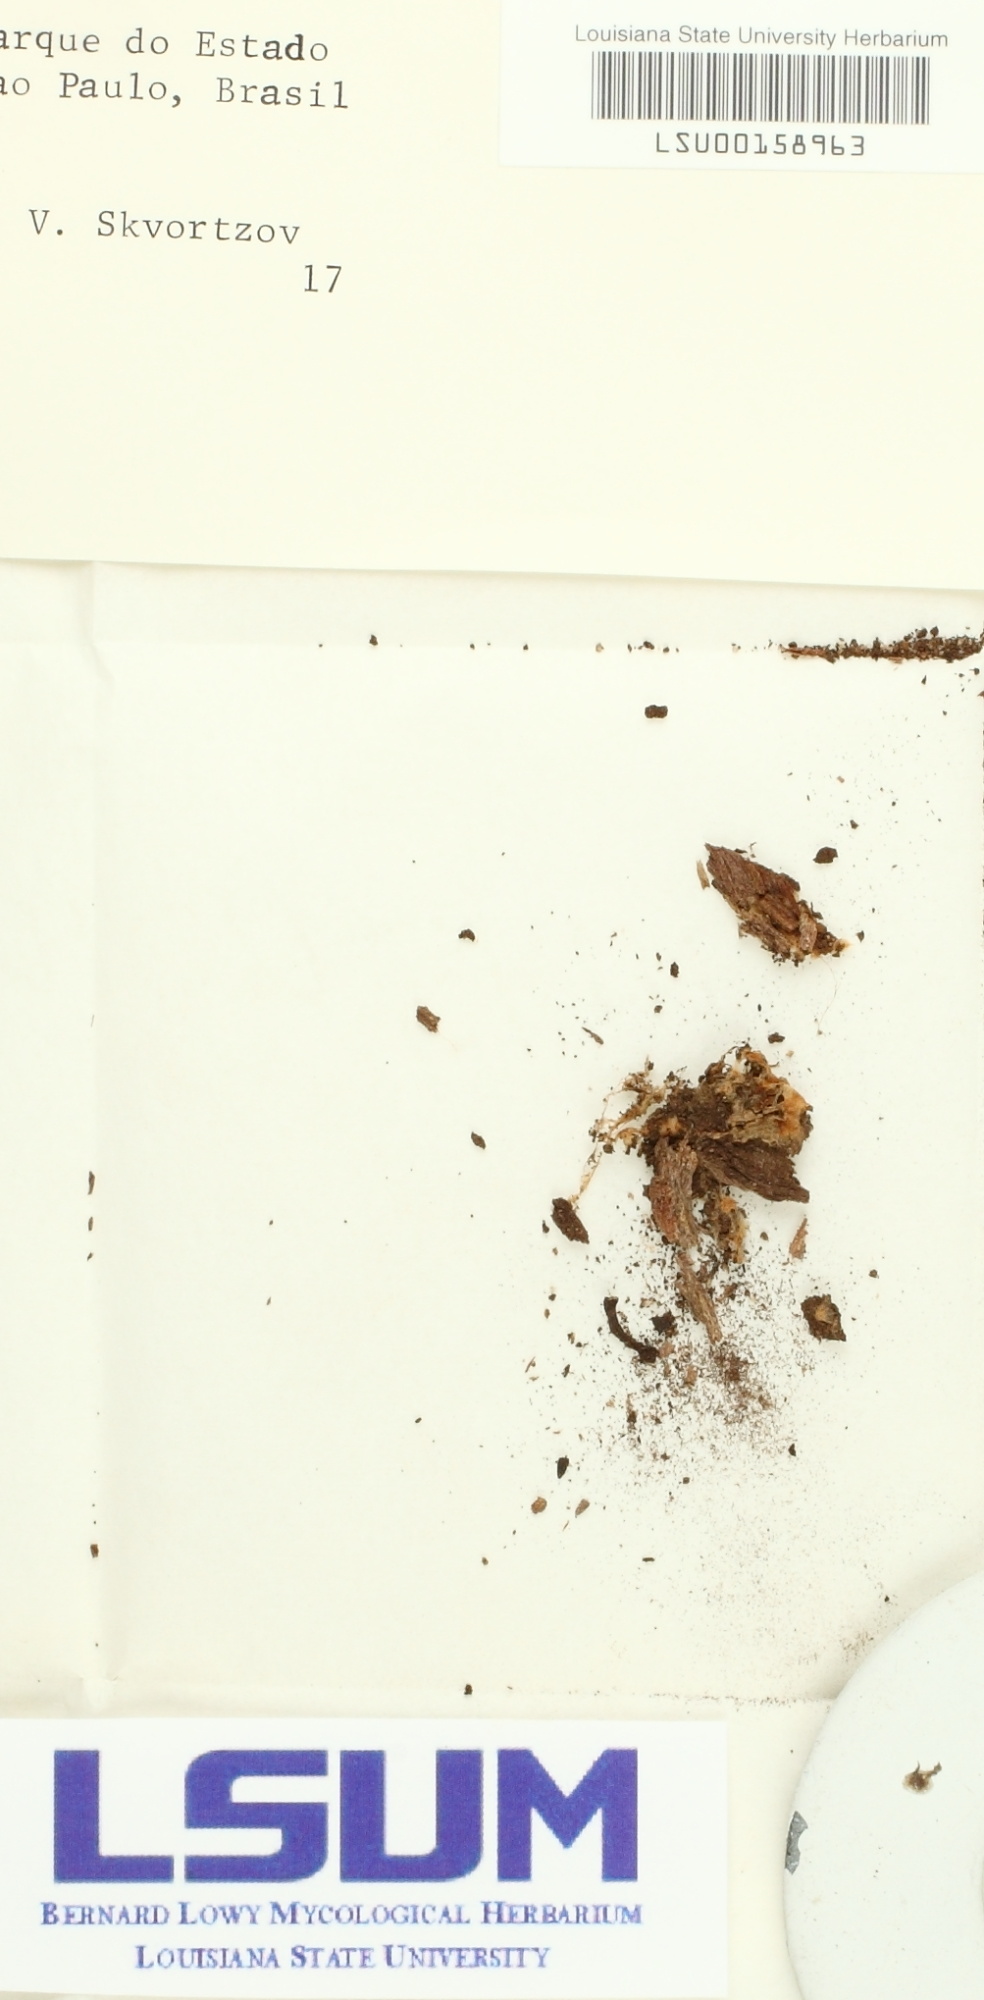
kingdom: Fungi
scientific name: Fungi
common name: Fungi
